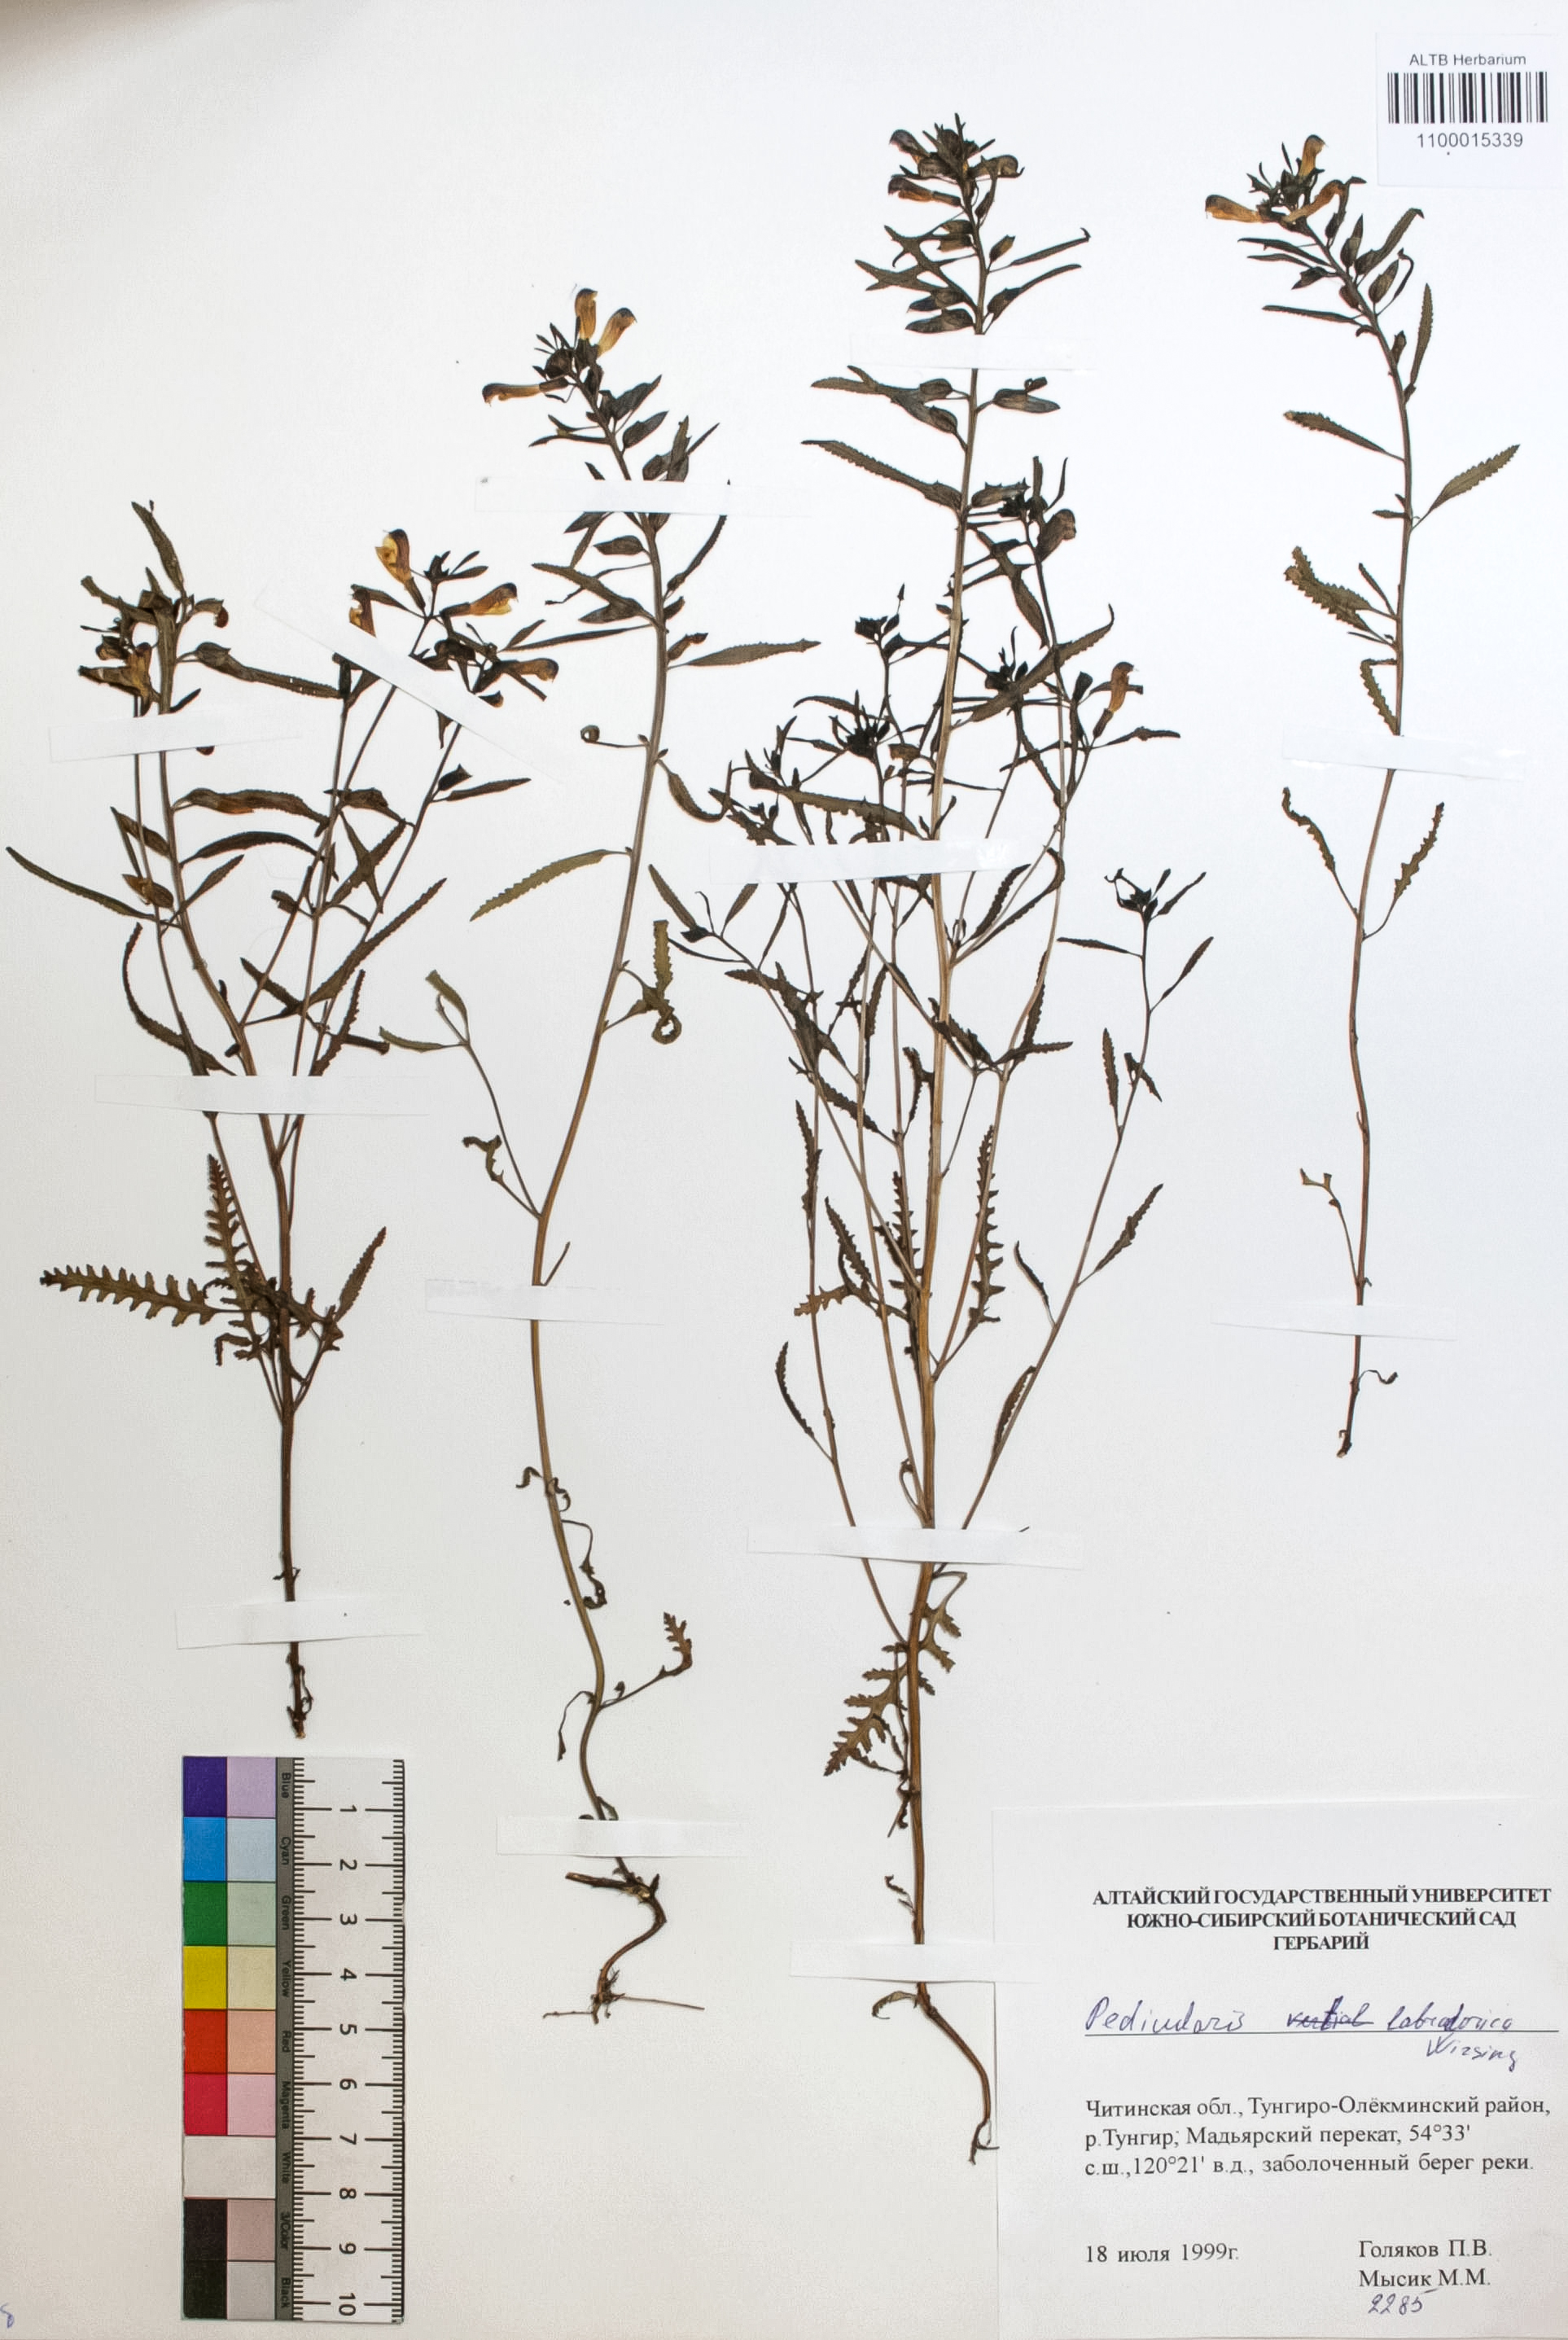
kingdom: Plantae
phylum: Tracheophyta
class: Magnoliopsida
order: Lamiales
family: Orobanchaceae
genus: Pedicularis
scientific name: Pedicularis labradorica
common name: Labrador lousewort
